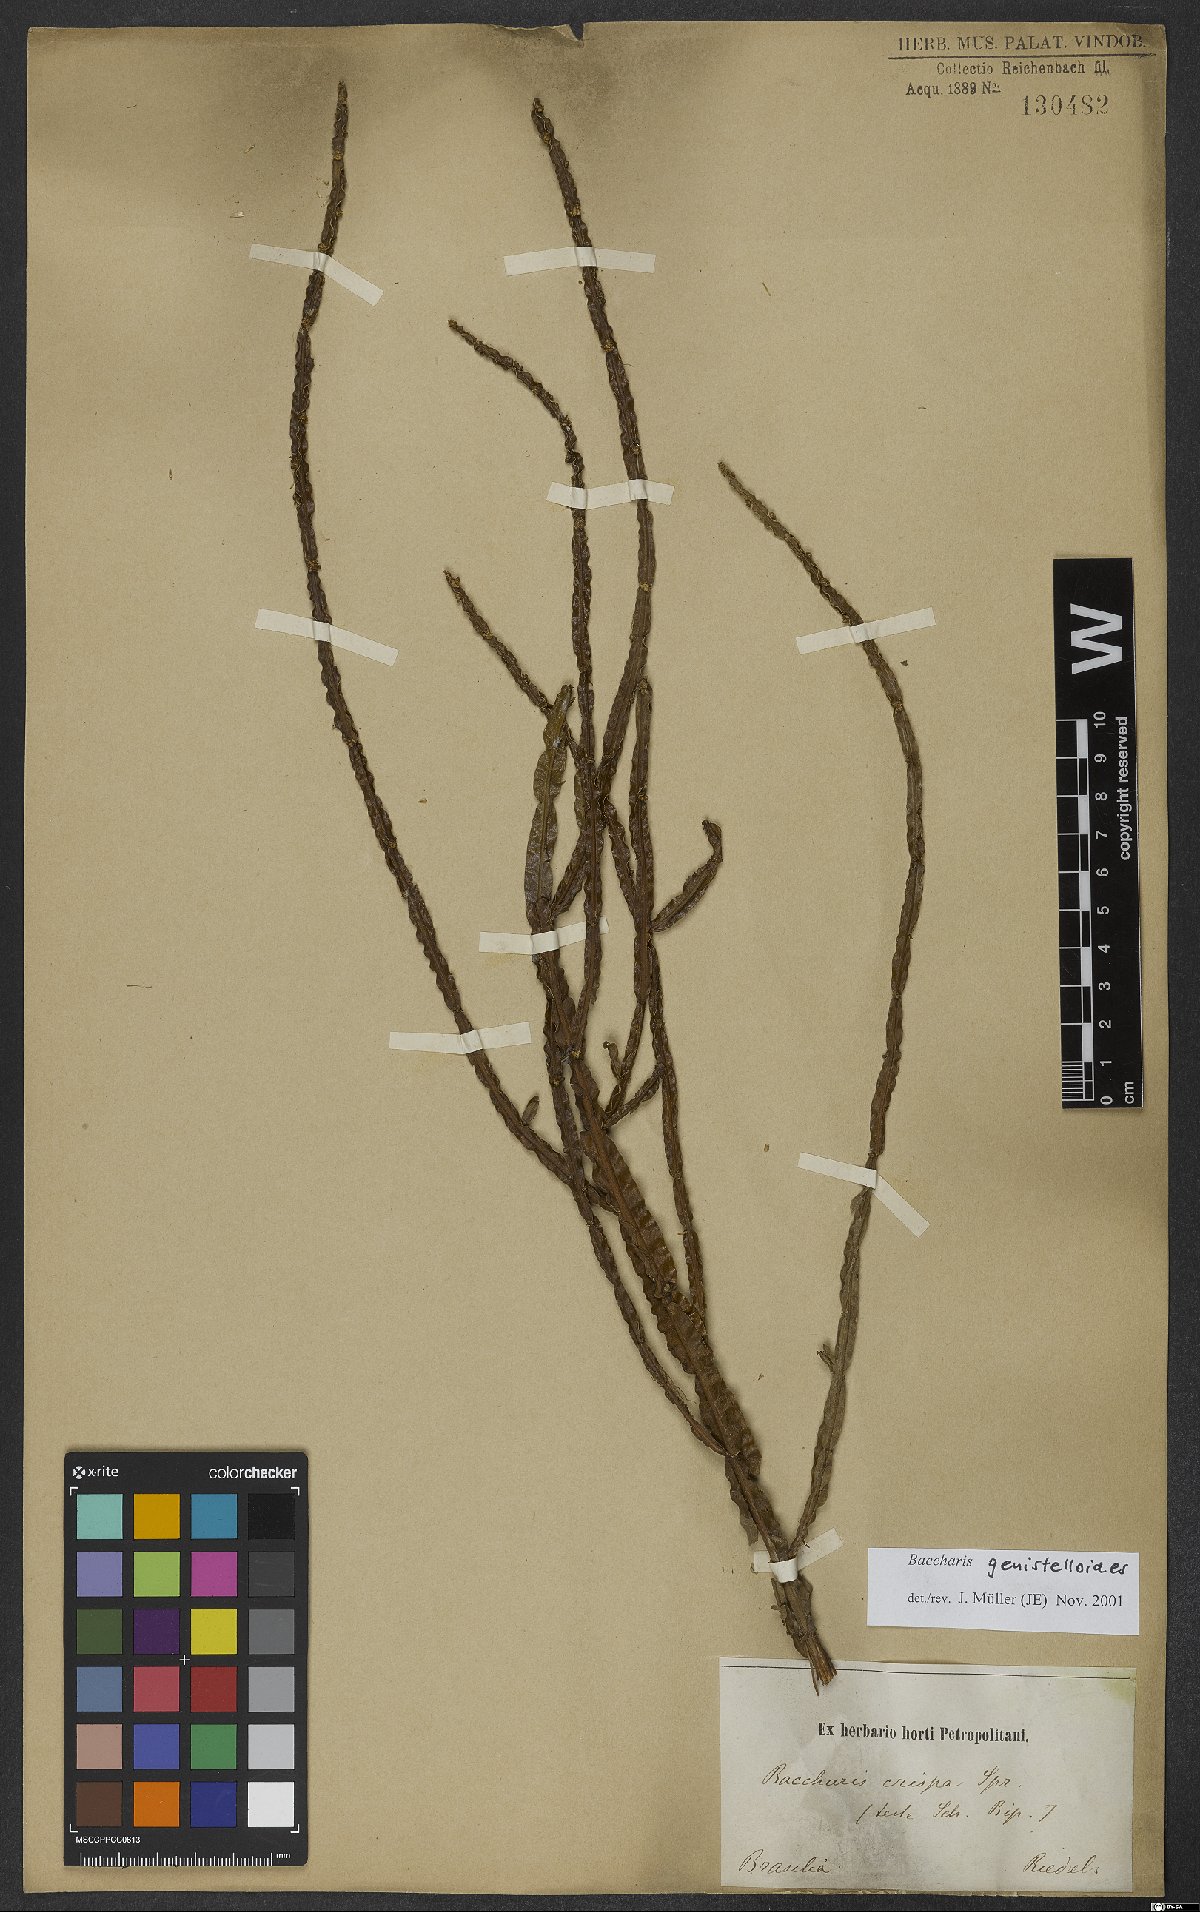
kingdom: Plantae
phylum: Tracheophyta
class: Magnoliopsida
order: Asterales
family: Asteraceae
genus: Baccharis
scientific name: Baccharis genistelloides
